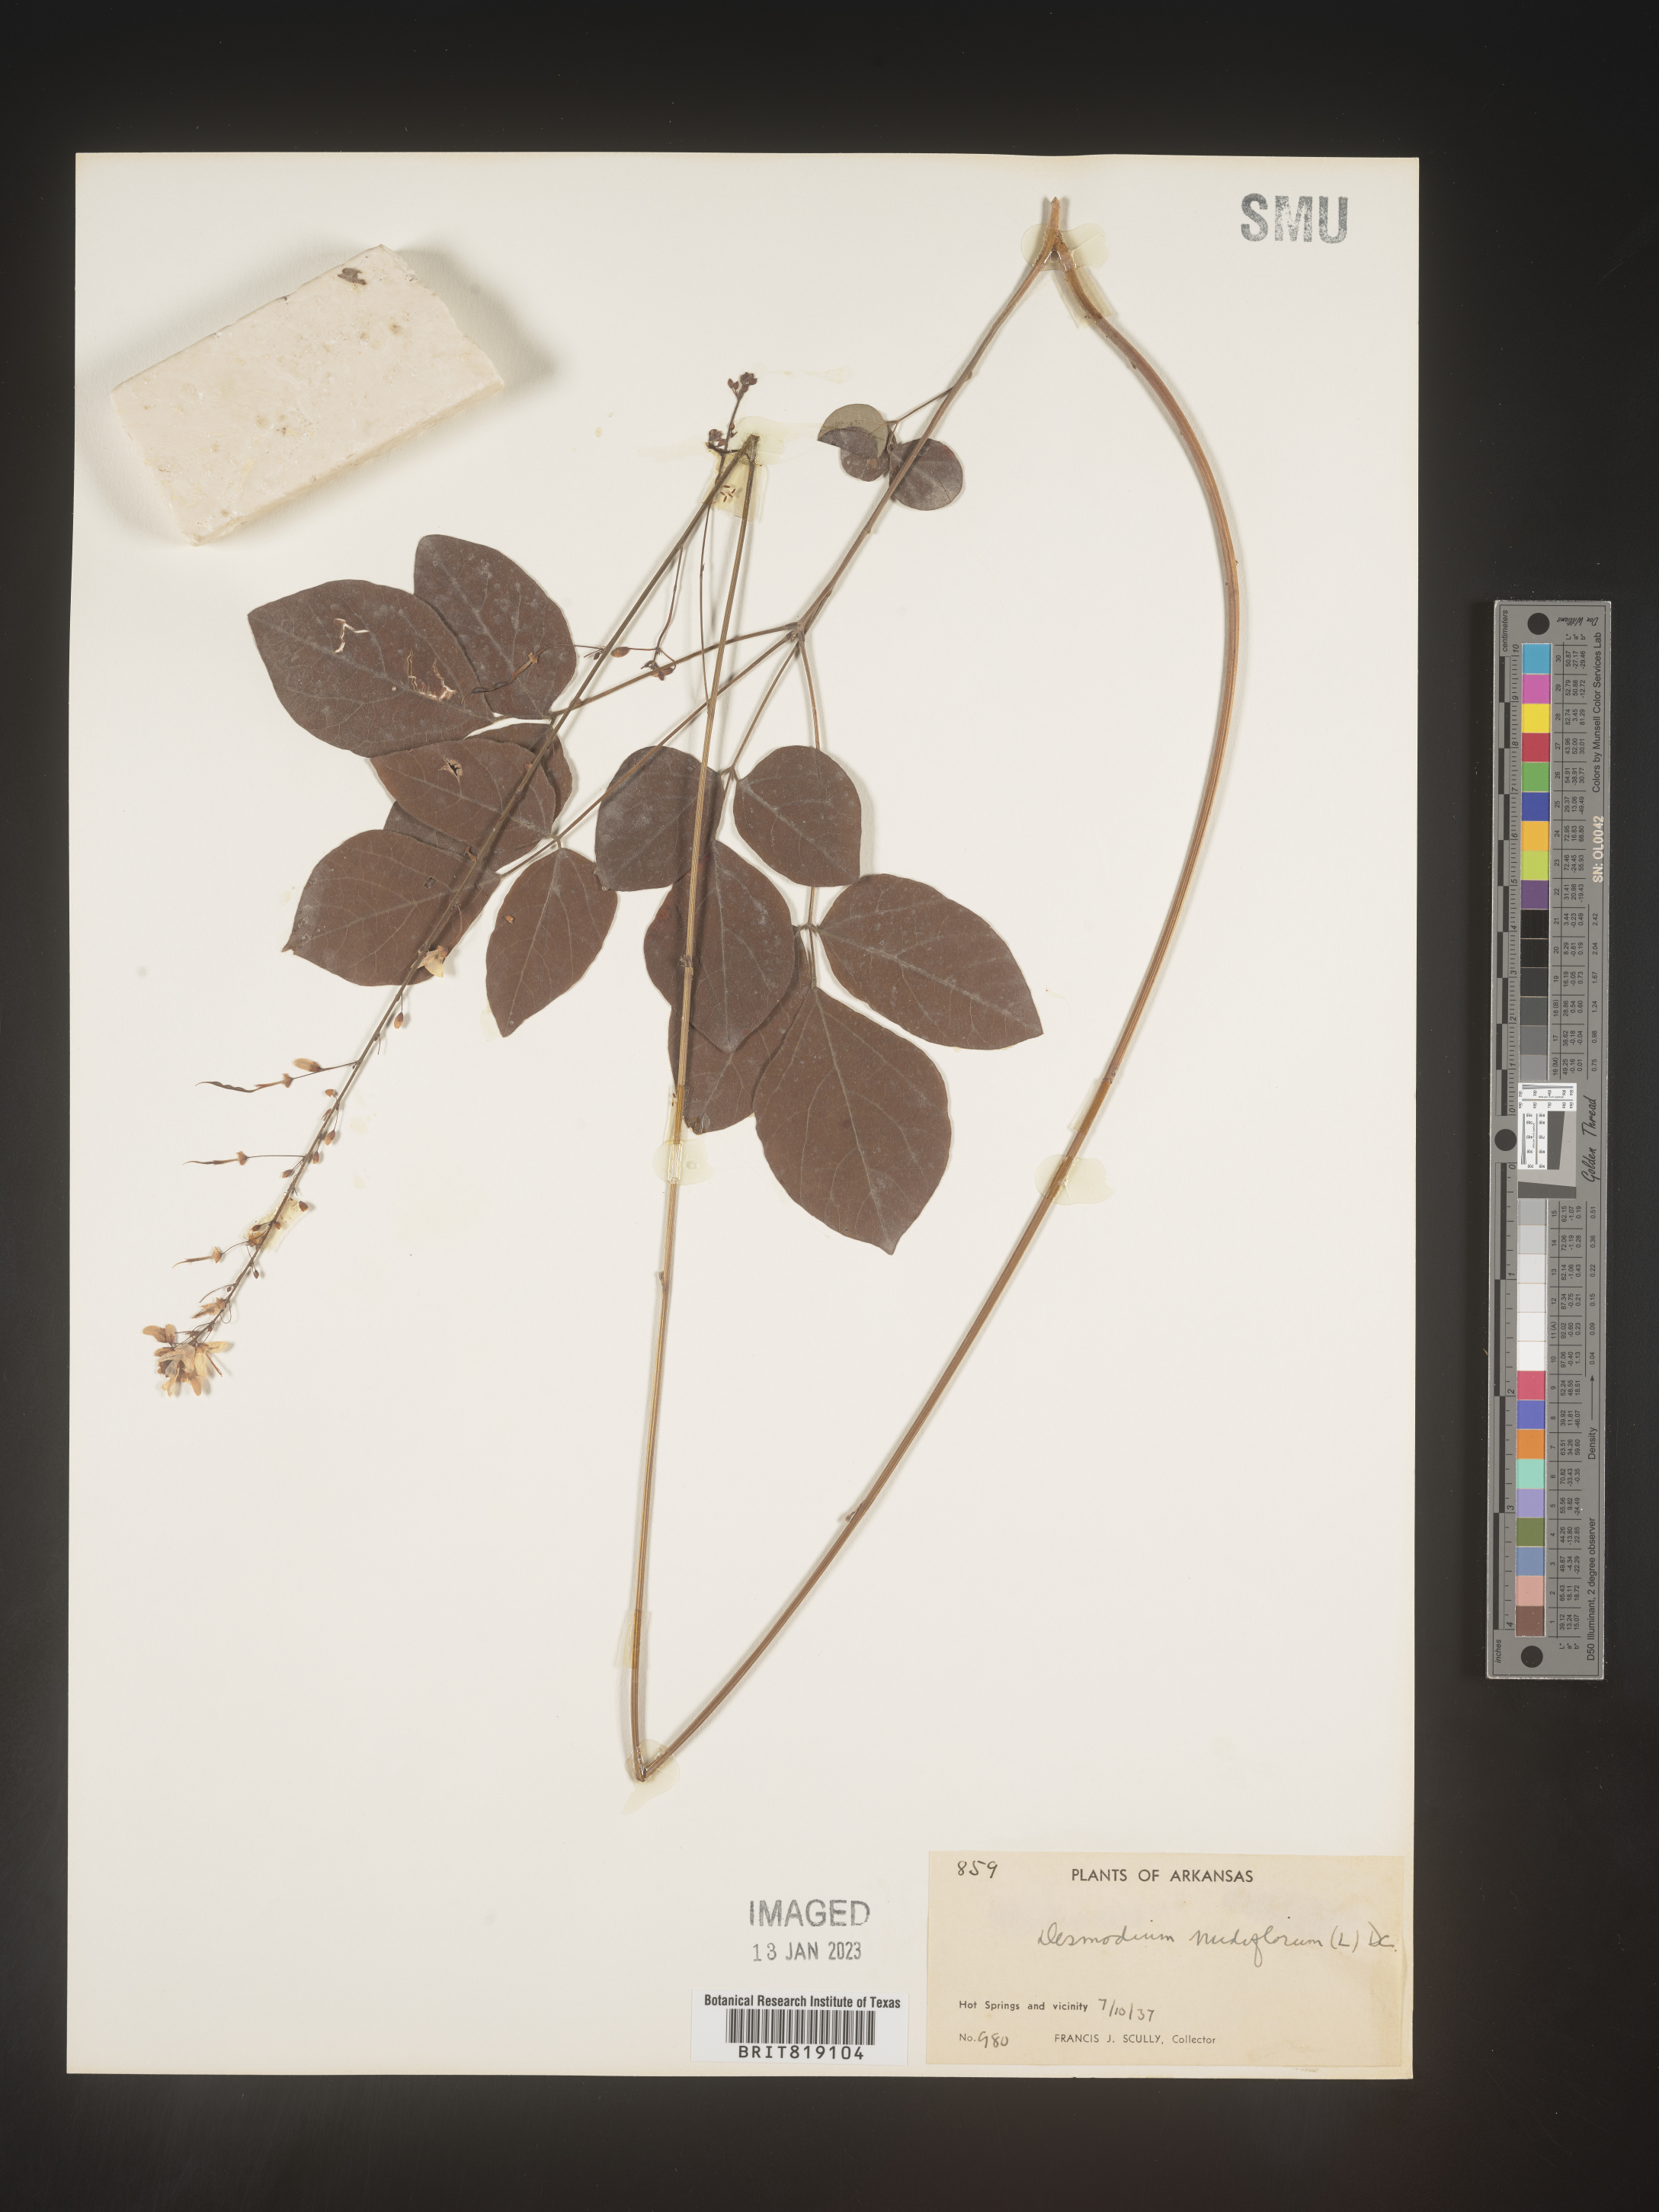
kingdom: Plantae
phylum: Tracheophyta
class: Magnoliopsida
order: Fabales
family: Fabaceae
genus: Hylodesmum
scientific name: Hylodesmum nudiflorum
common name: Bare-stemmed tick-trefoil
